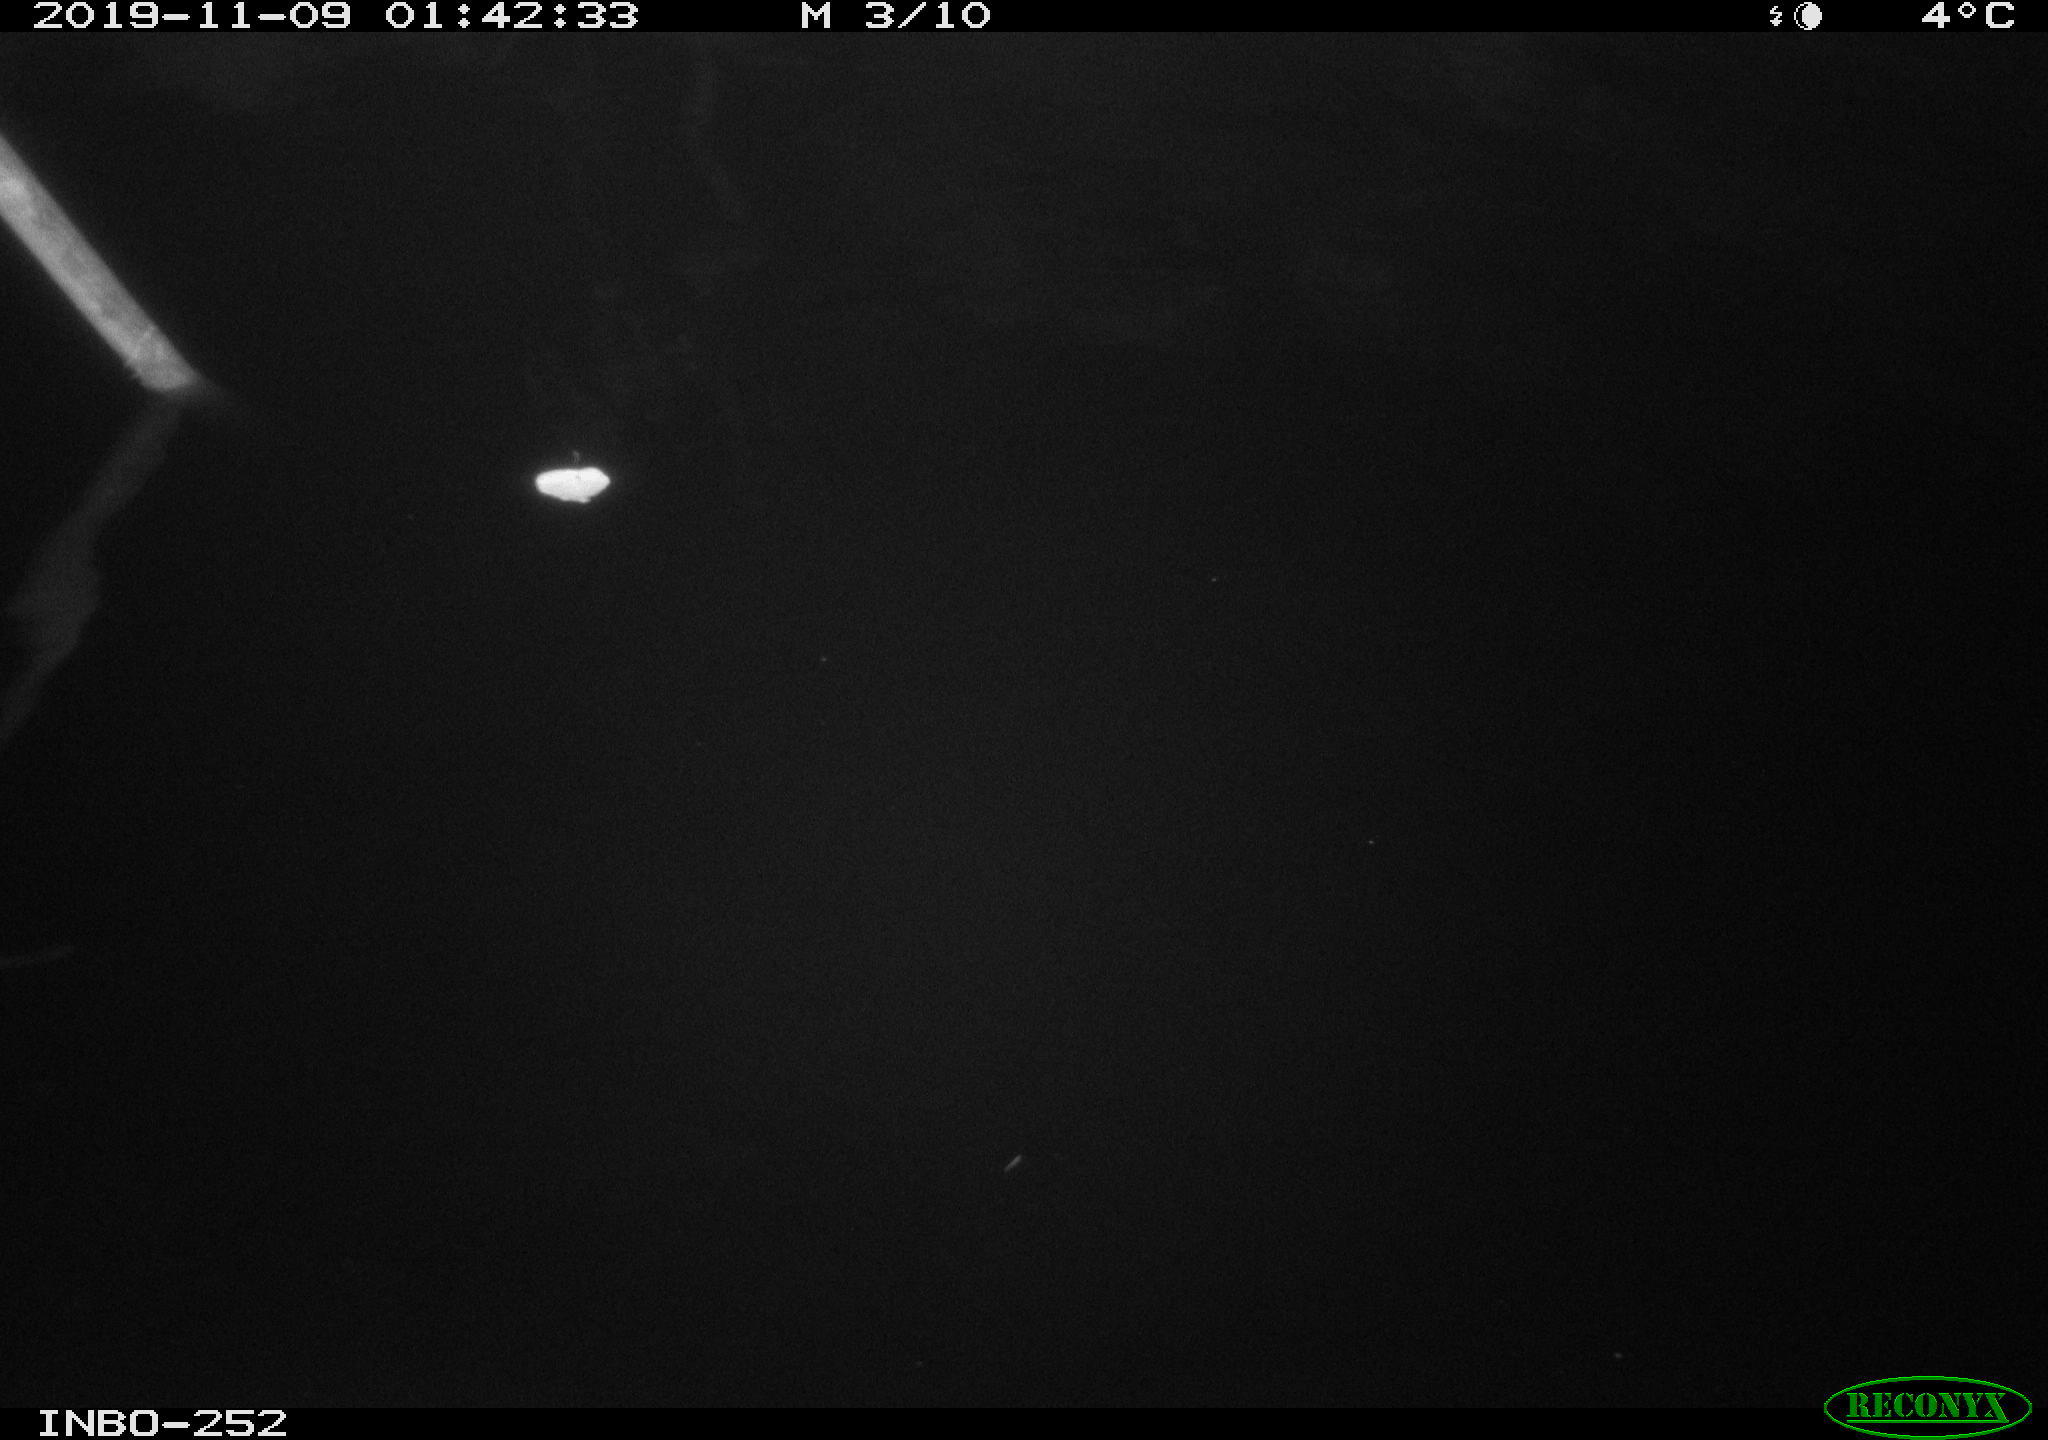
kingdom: Animalia
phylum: Chordata
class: Aves
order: Anseriformes
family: Anatidae
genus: Anas
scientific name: Anas platyrhynchos
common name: Mallard
